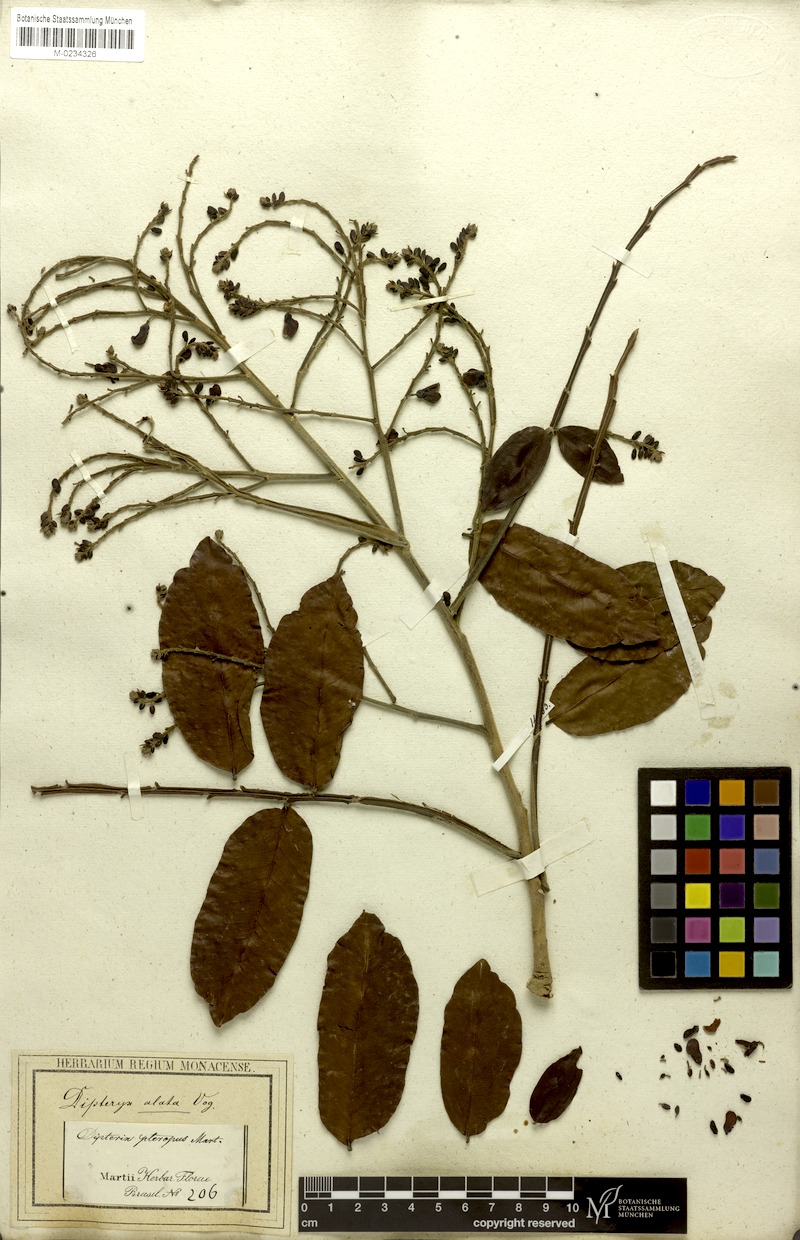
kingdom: Plantae
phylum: Tracheophyta
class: Magnoliopsida
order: Fabales
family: Fabaceae
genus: Dipteryx
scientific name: Dipteryx alata
